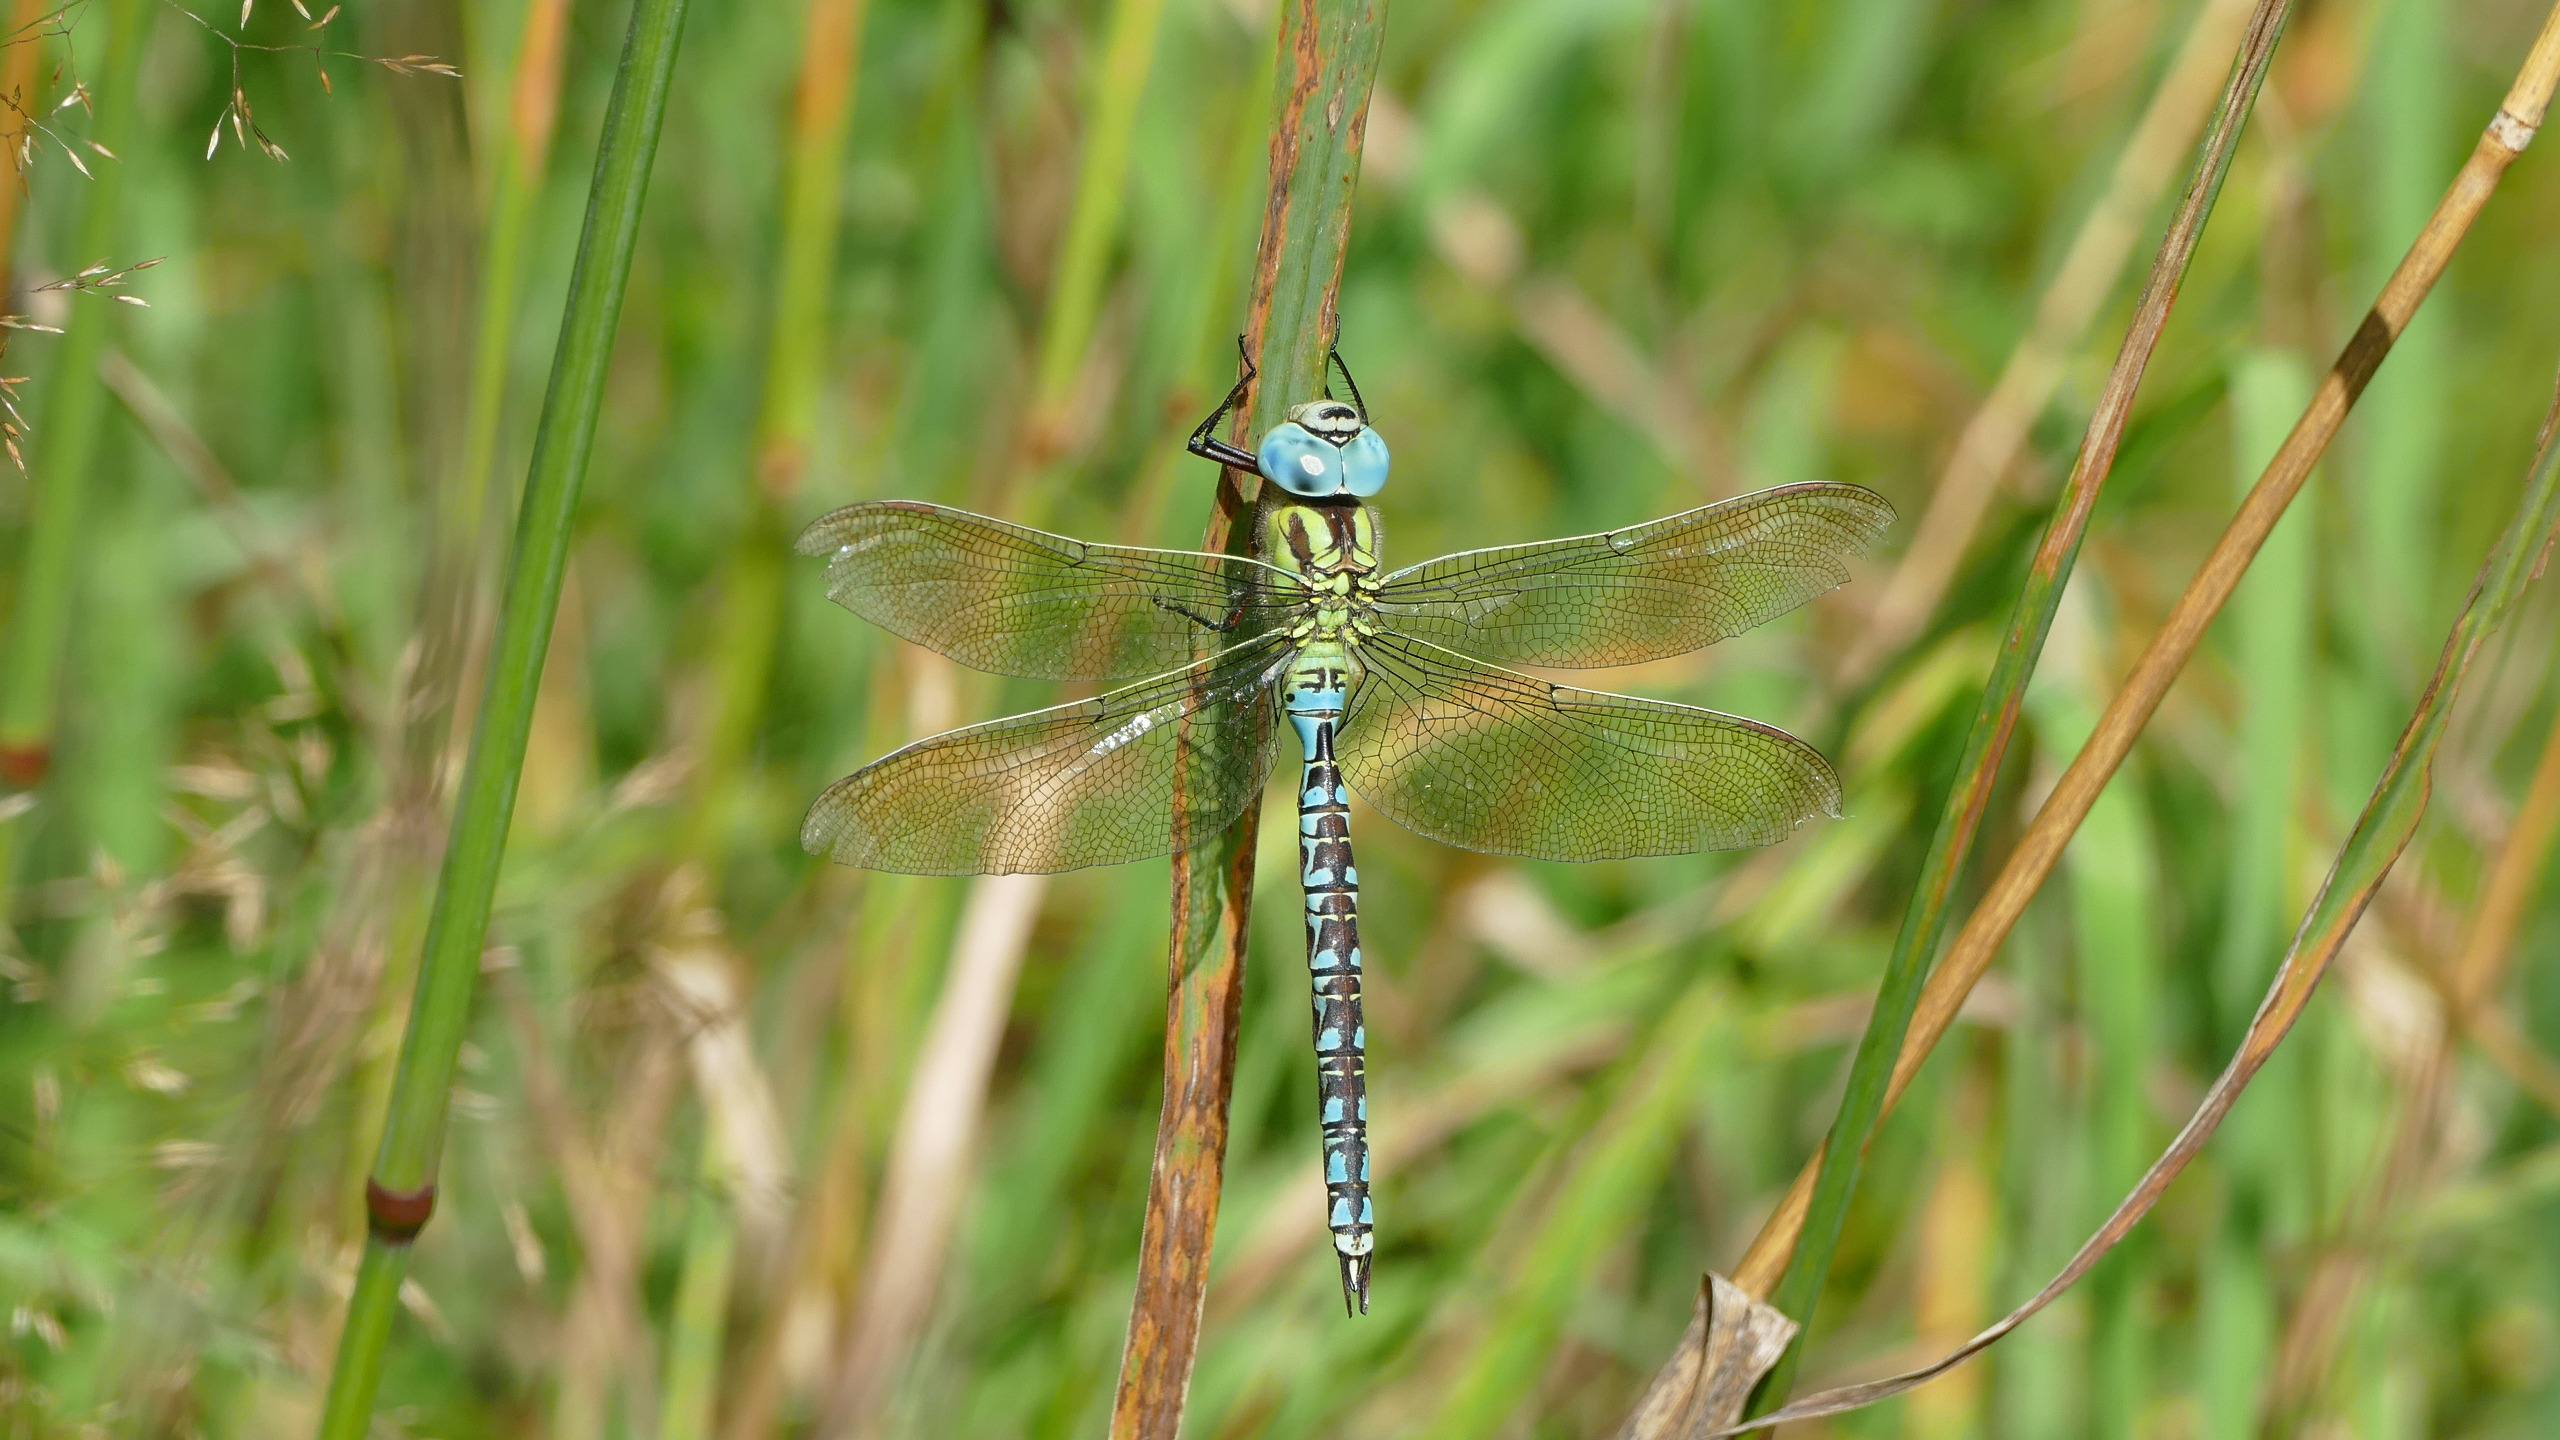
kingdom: Animalia
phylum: Arthropoda
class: Insecta
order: Odonata
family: Aeshnidae
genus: Aeshna
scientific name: Aeshna viridis
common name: Grøn mosaikguldsmed
